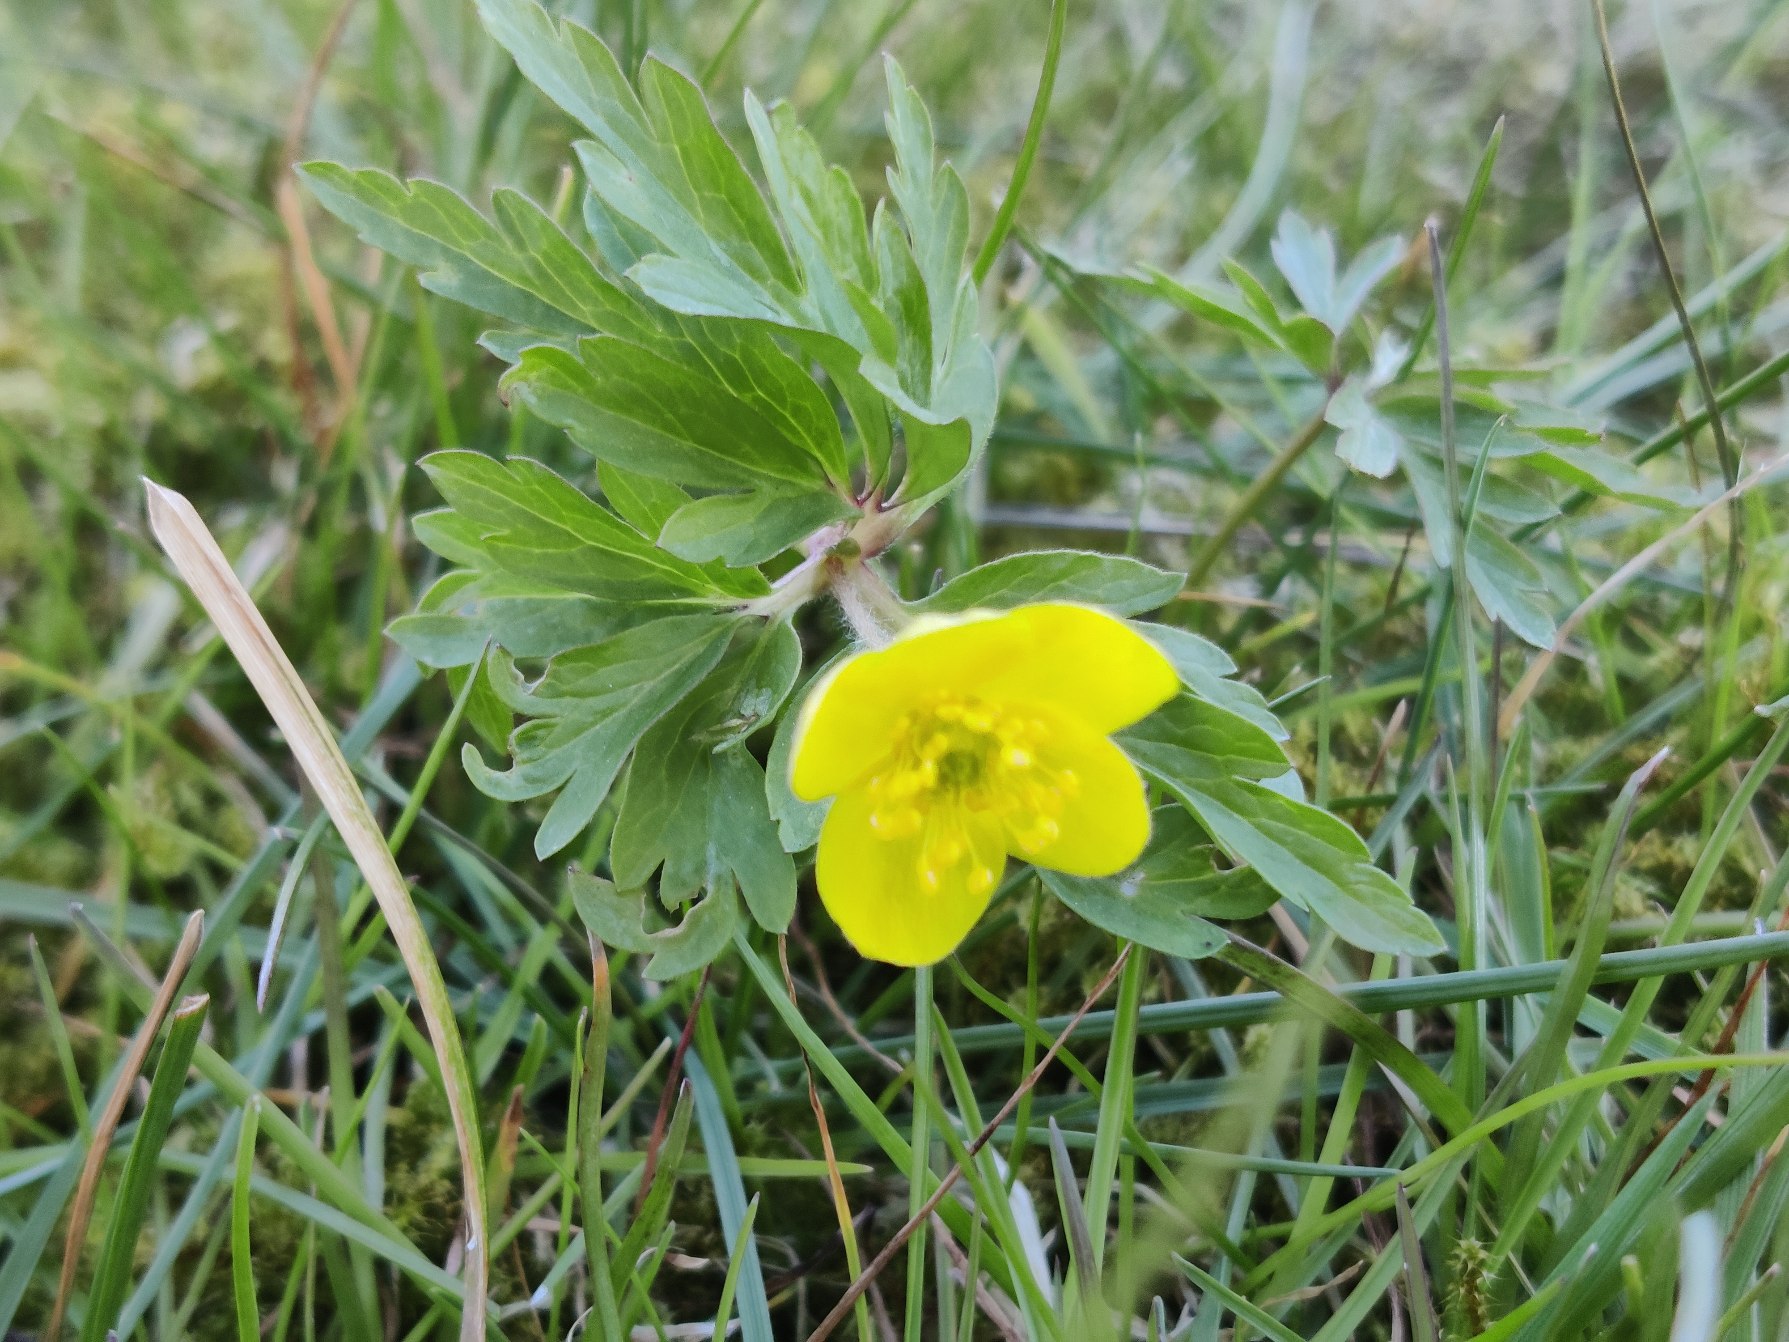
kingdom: Plantae
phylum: Tracheophyta
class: Magnoliopsida
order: Ranunculales
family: Ranunculaceae
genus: Anemone
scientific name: Anemone ranunculoides
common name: Gul anemone
